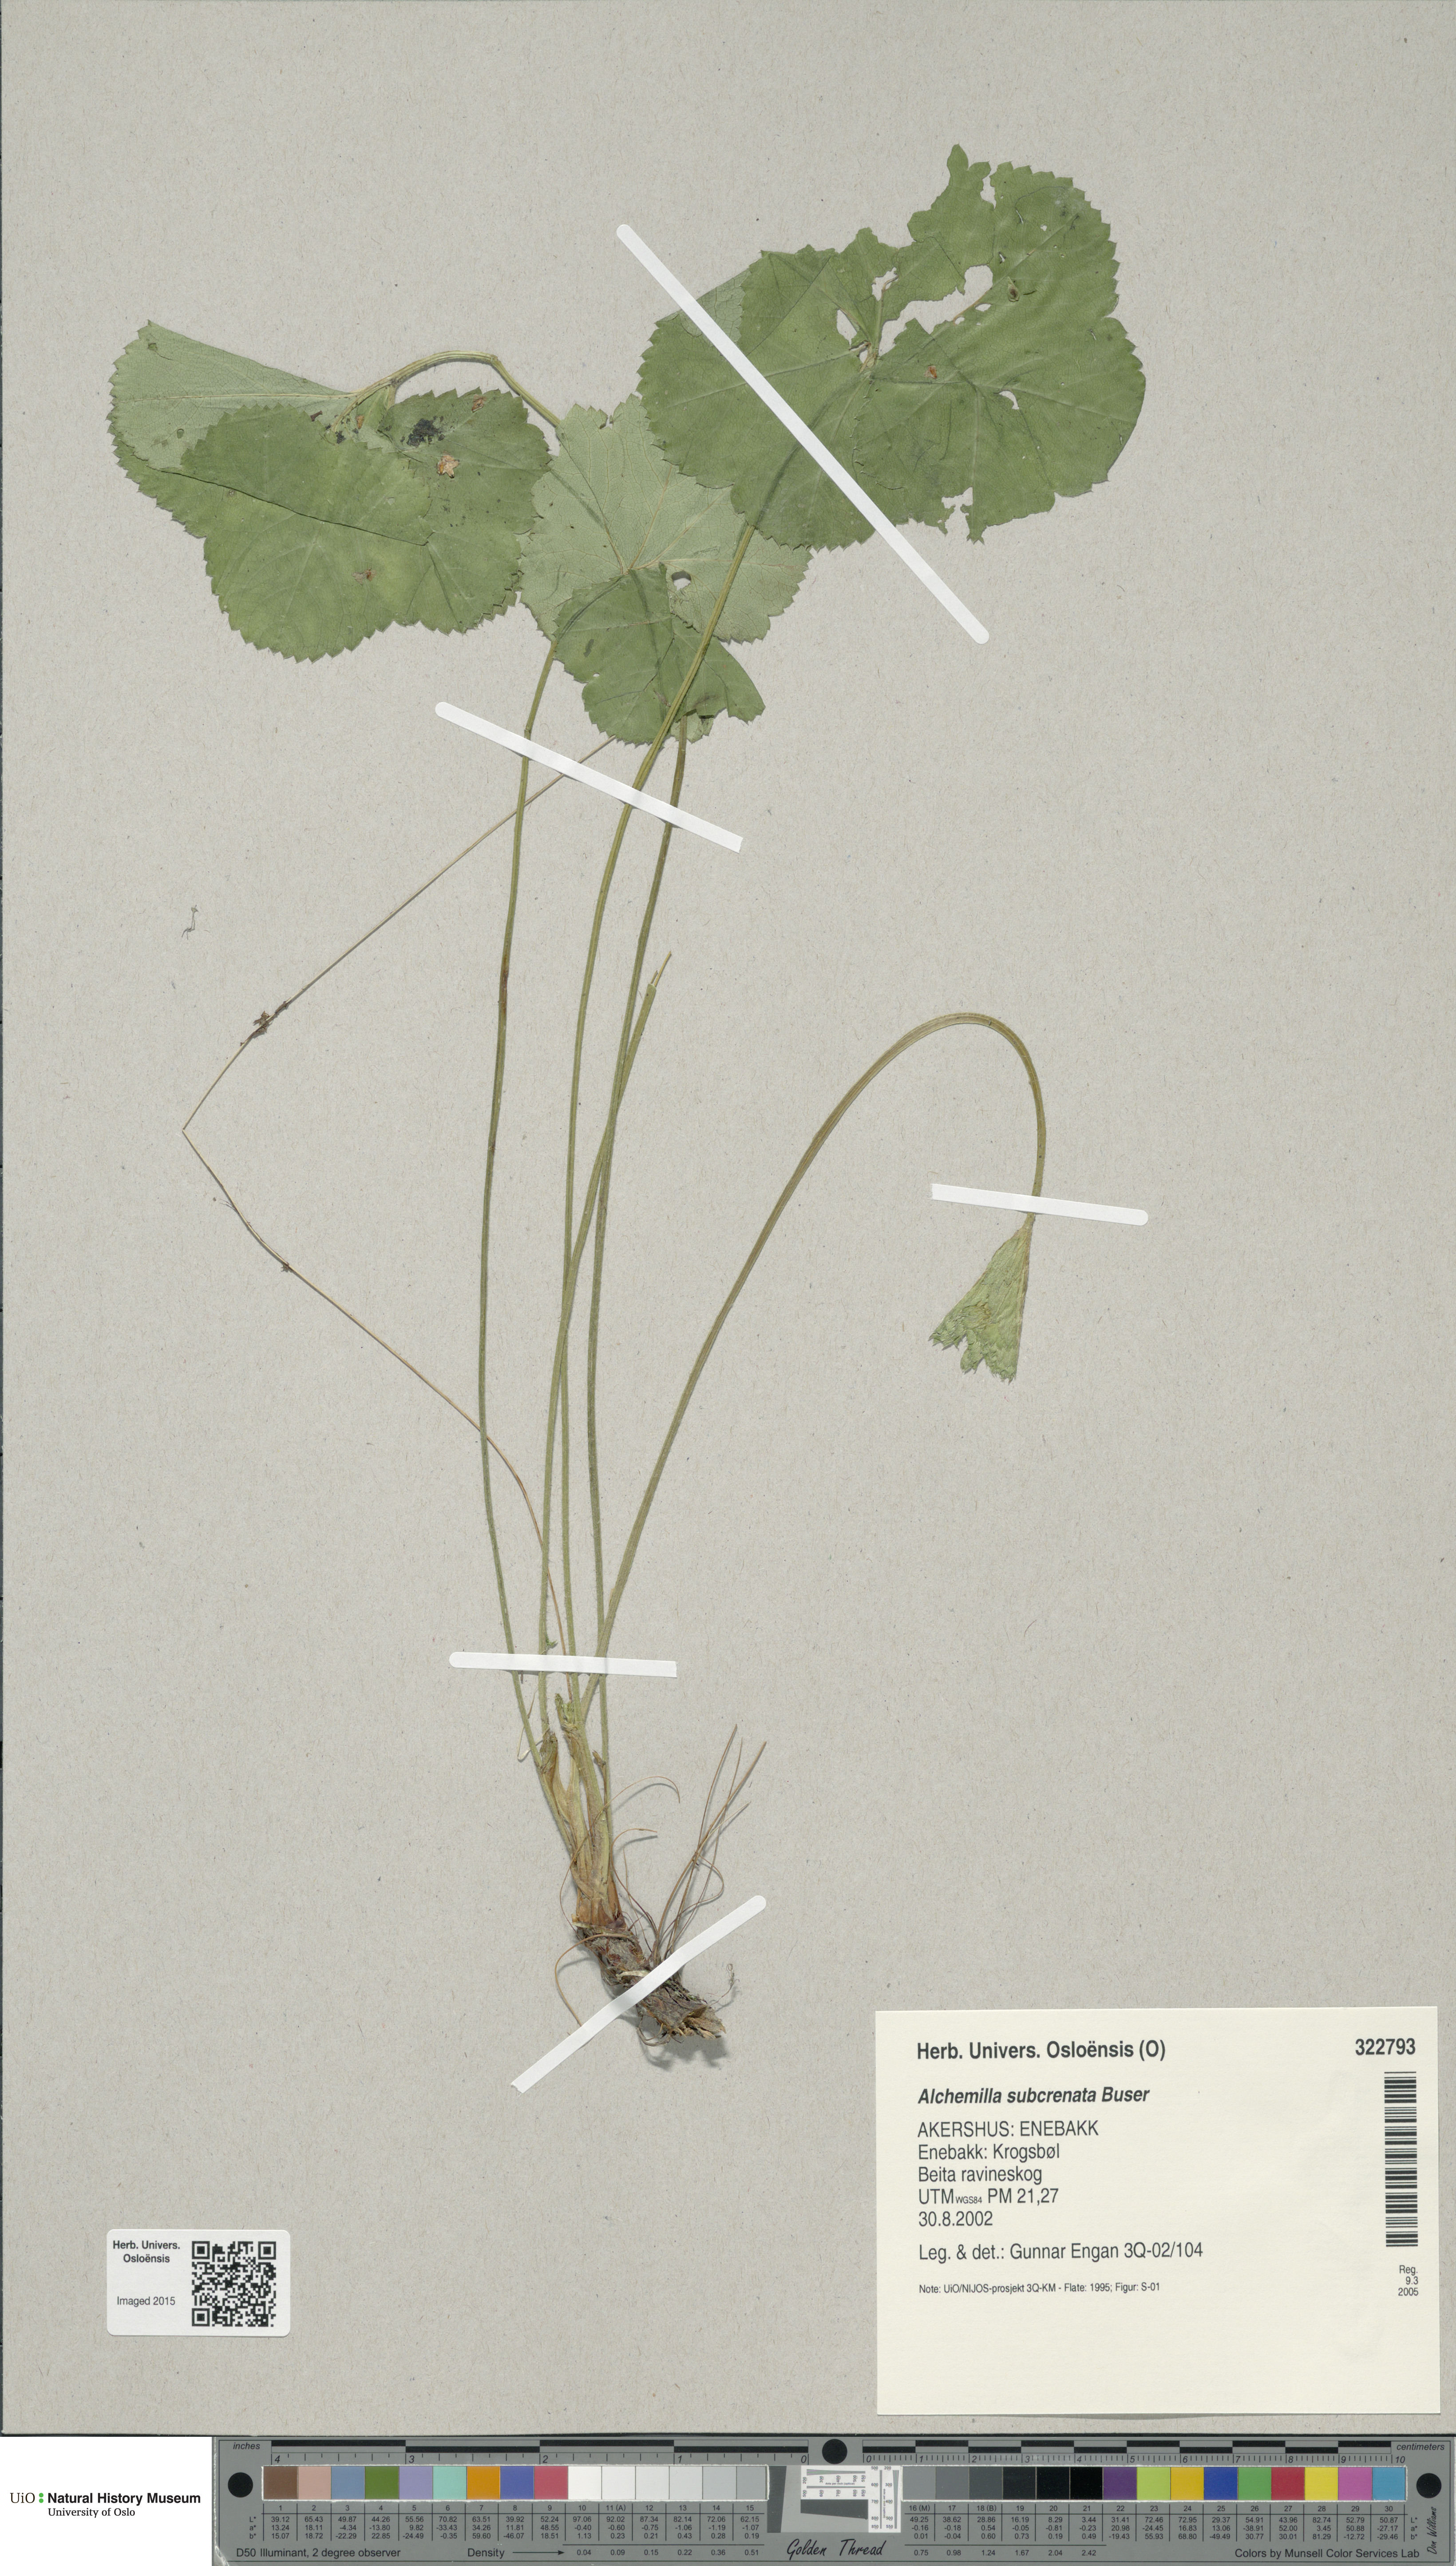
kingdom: Plantae
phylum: Tracheophyta
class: Magnoliopsida
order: Rosales
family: Rosaceae
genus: Alchemilla
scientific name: Alchemilla subcrenata
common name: Broadtooth lady's mantle
